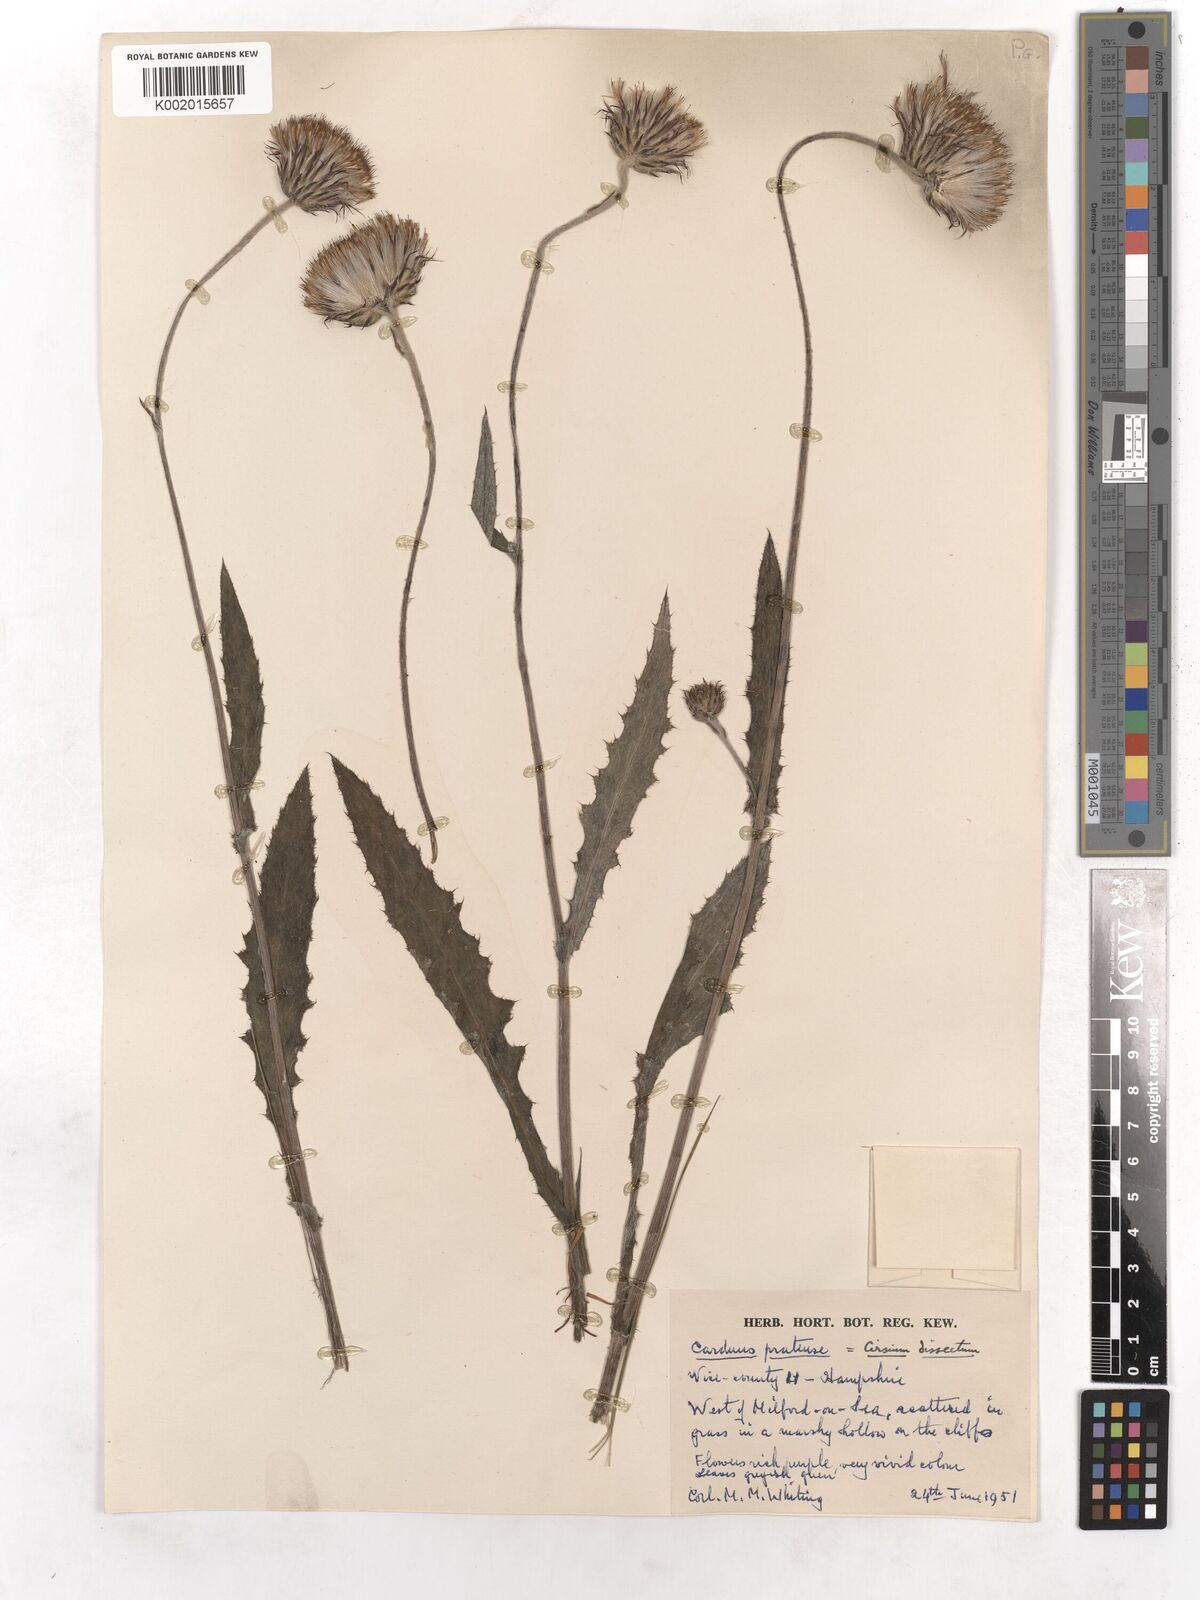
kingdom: Plantae
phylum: Tracheophyta
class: Magnoliopsida
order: Asterales
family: Asteraceae
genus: Cirsium
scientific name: Cirsium dissectum
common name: Meadow thistle
